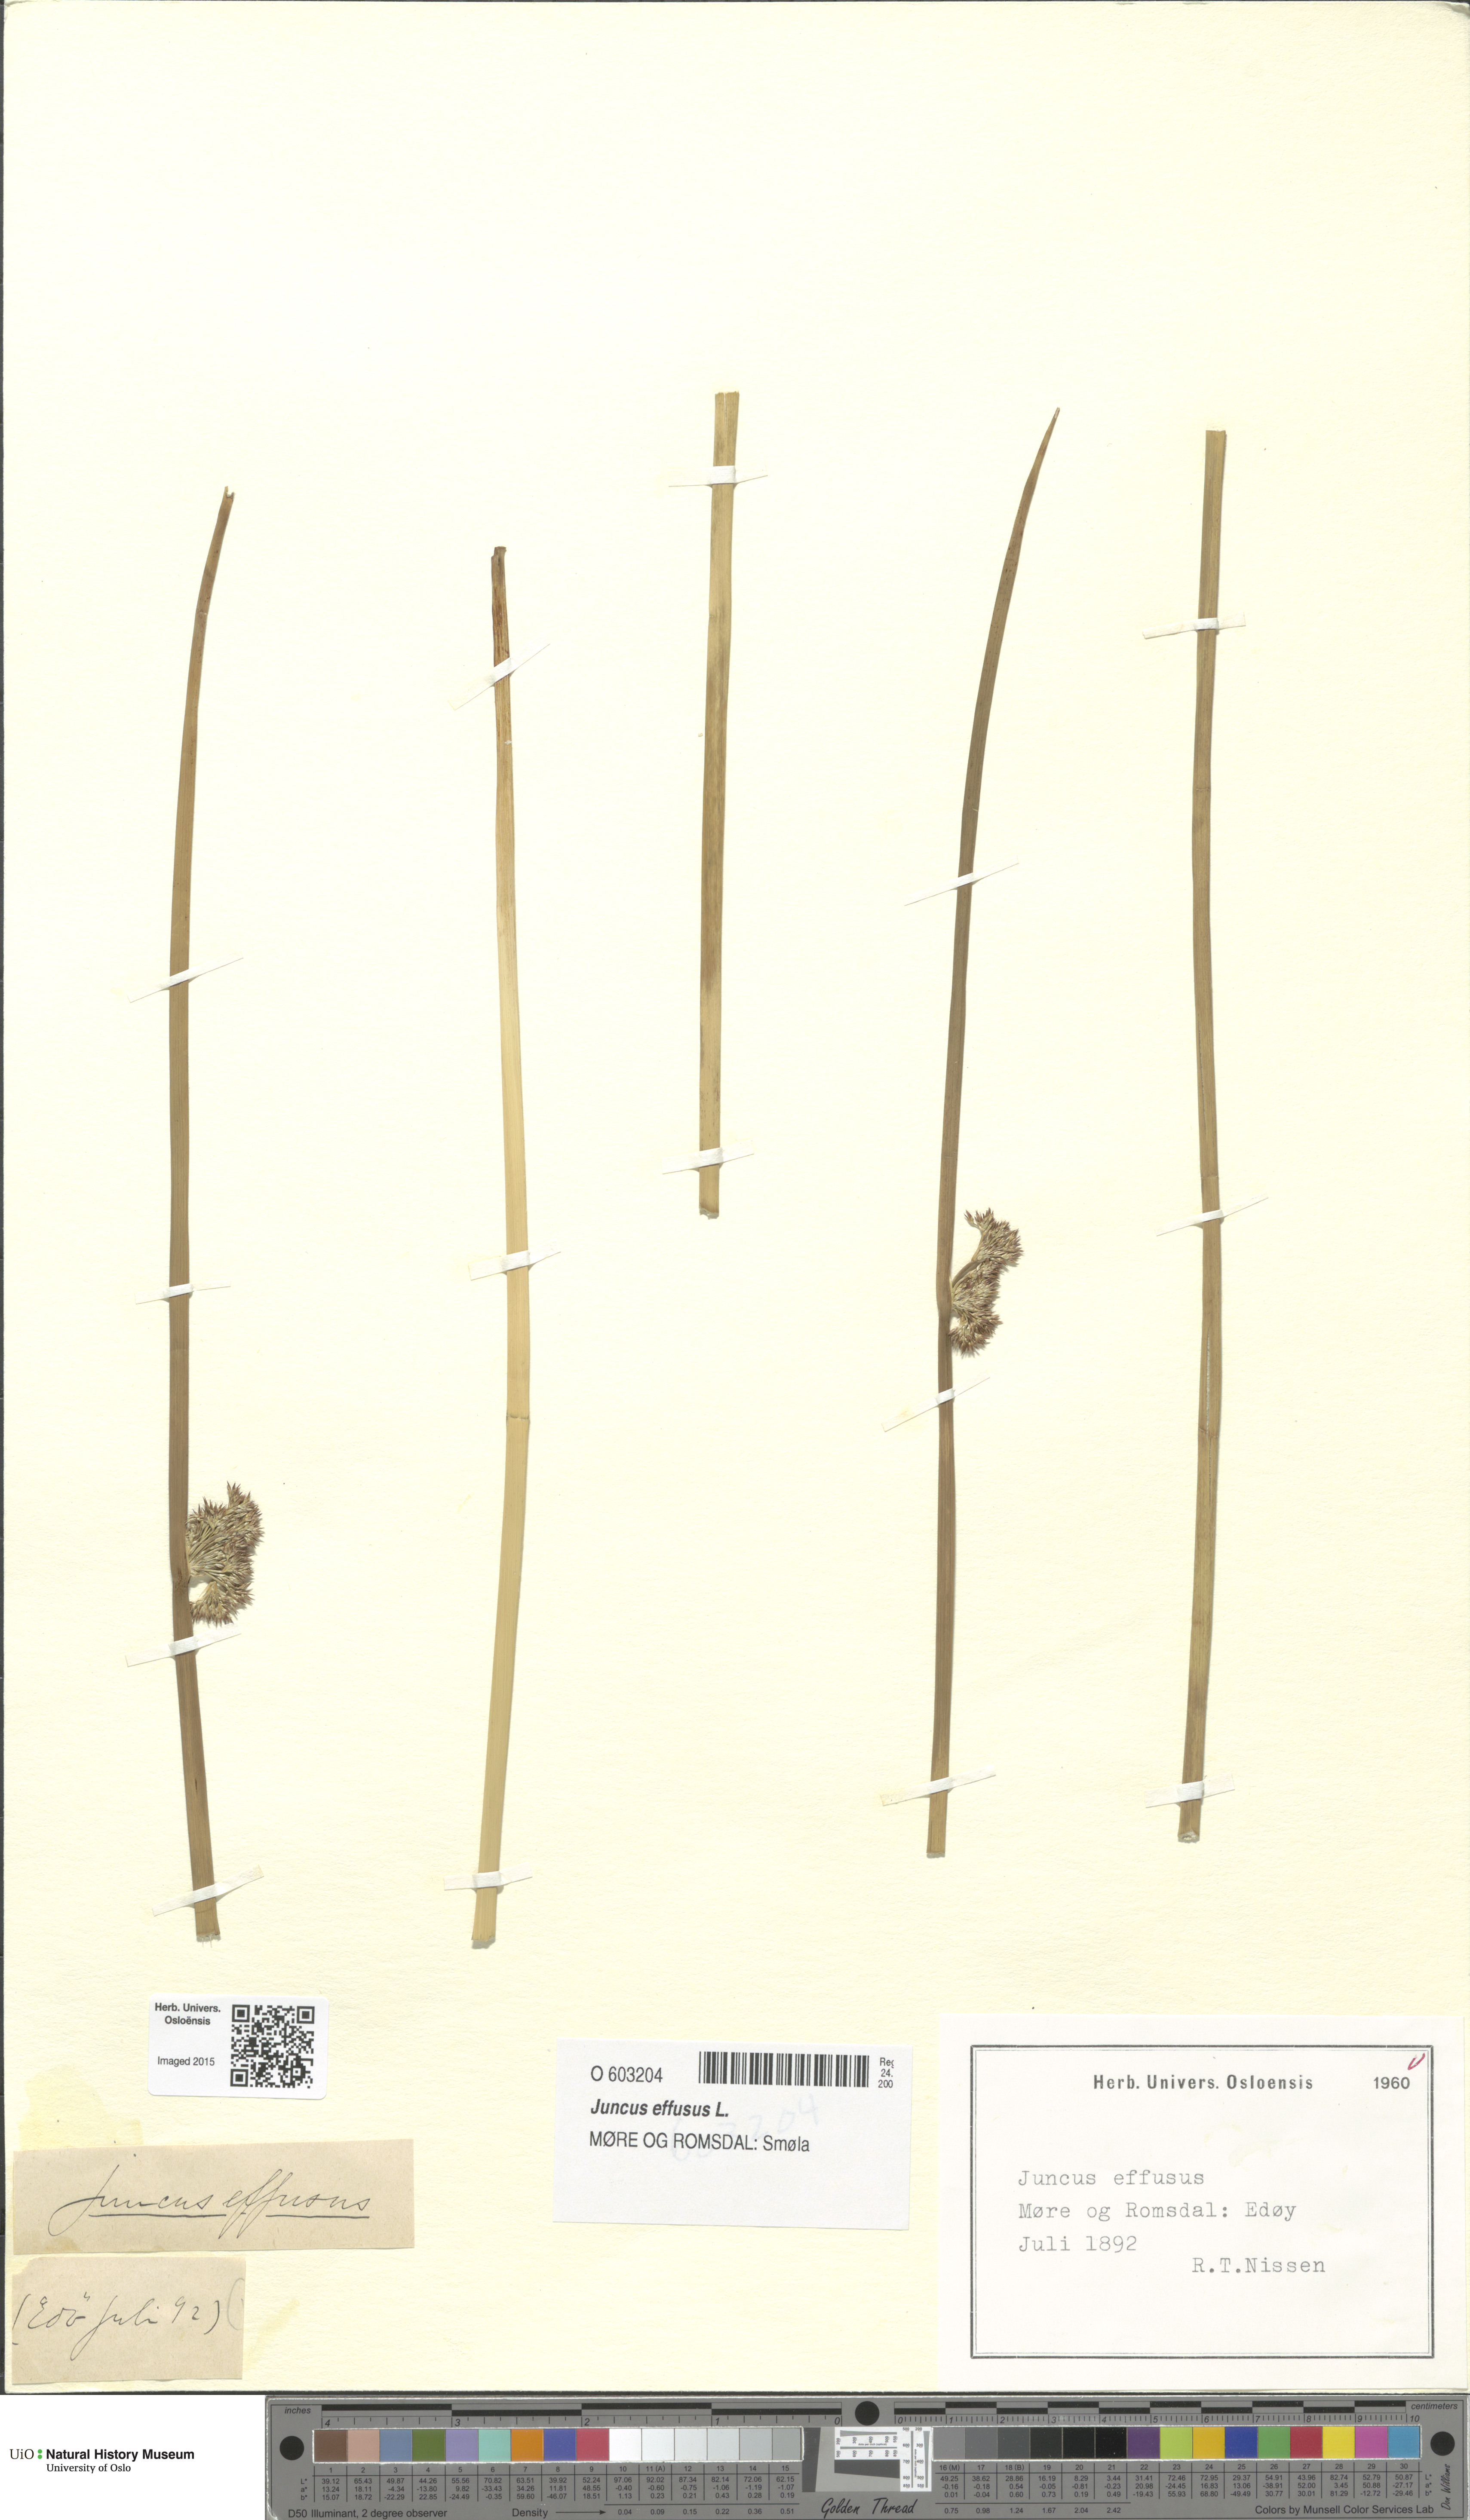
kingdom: Plantae
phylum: Tracheophyta
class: Liliopsida
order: Poales
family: Juncaceae
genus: Juncus
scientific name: Juncus effusus
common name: Soft rush
